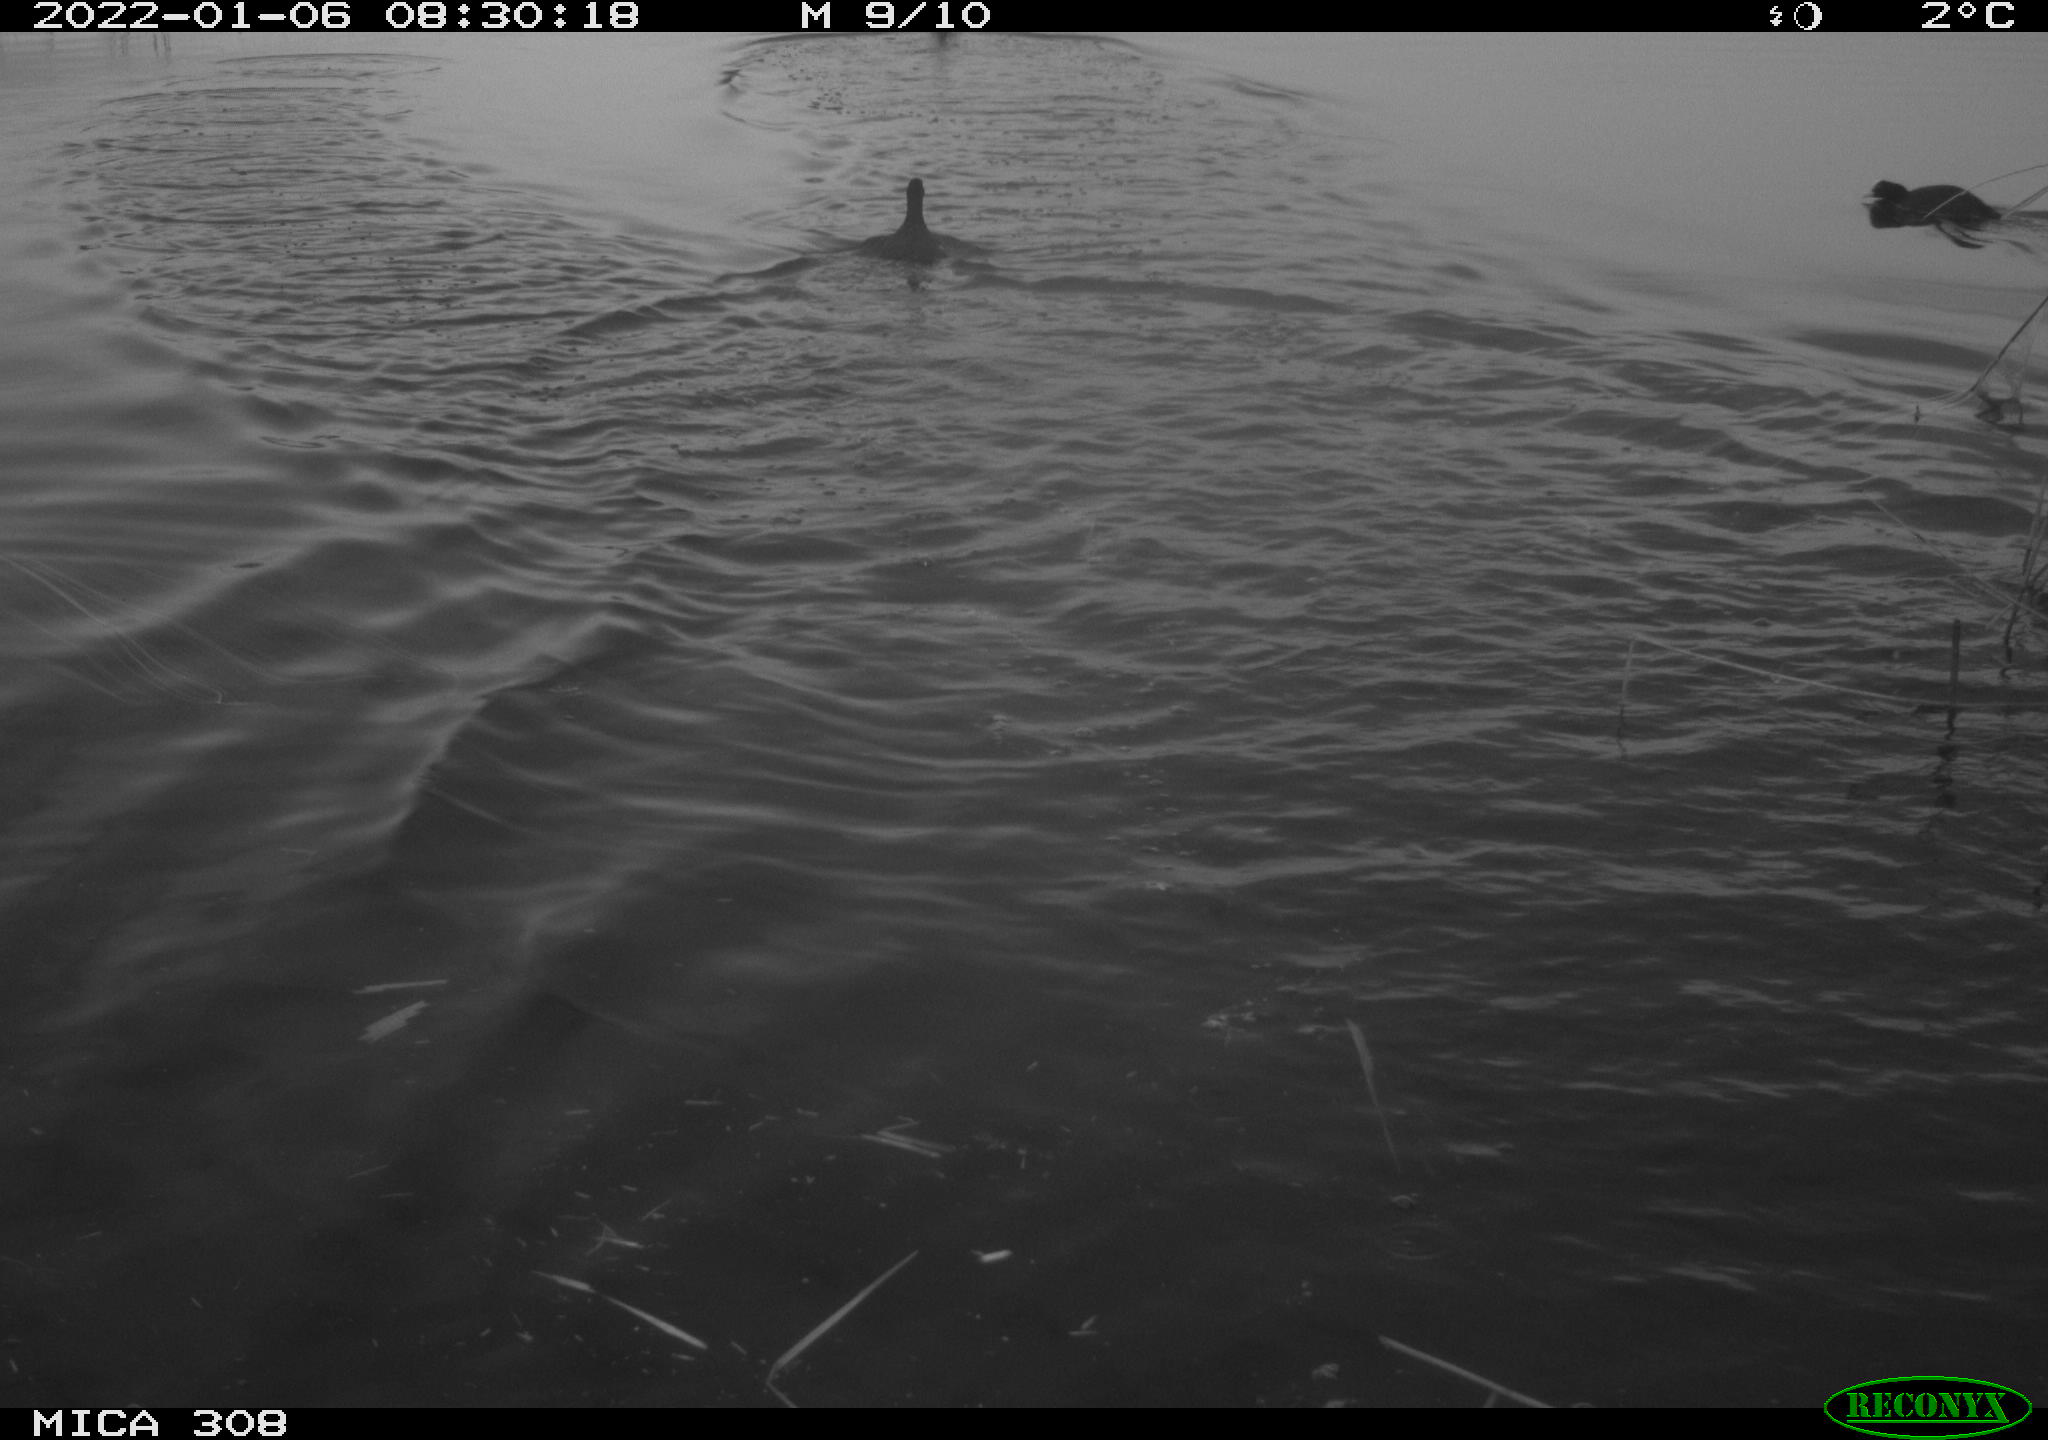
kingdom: Animalia
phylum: Chordata
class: Aves
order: Anseriformes
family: Anatidae
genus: Anas
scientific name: Anas
